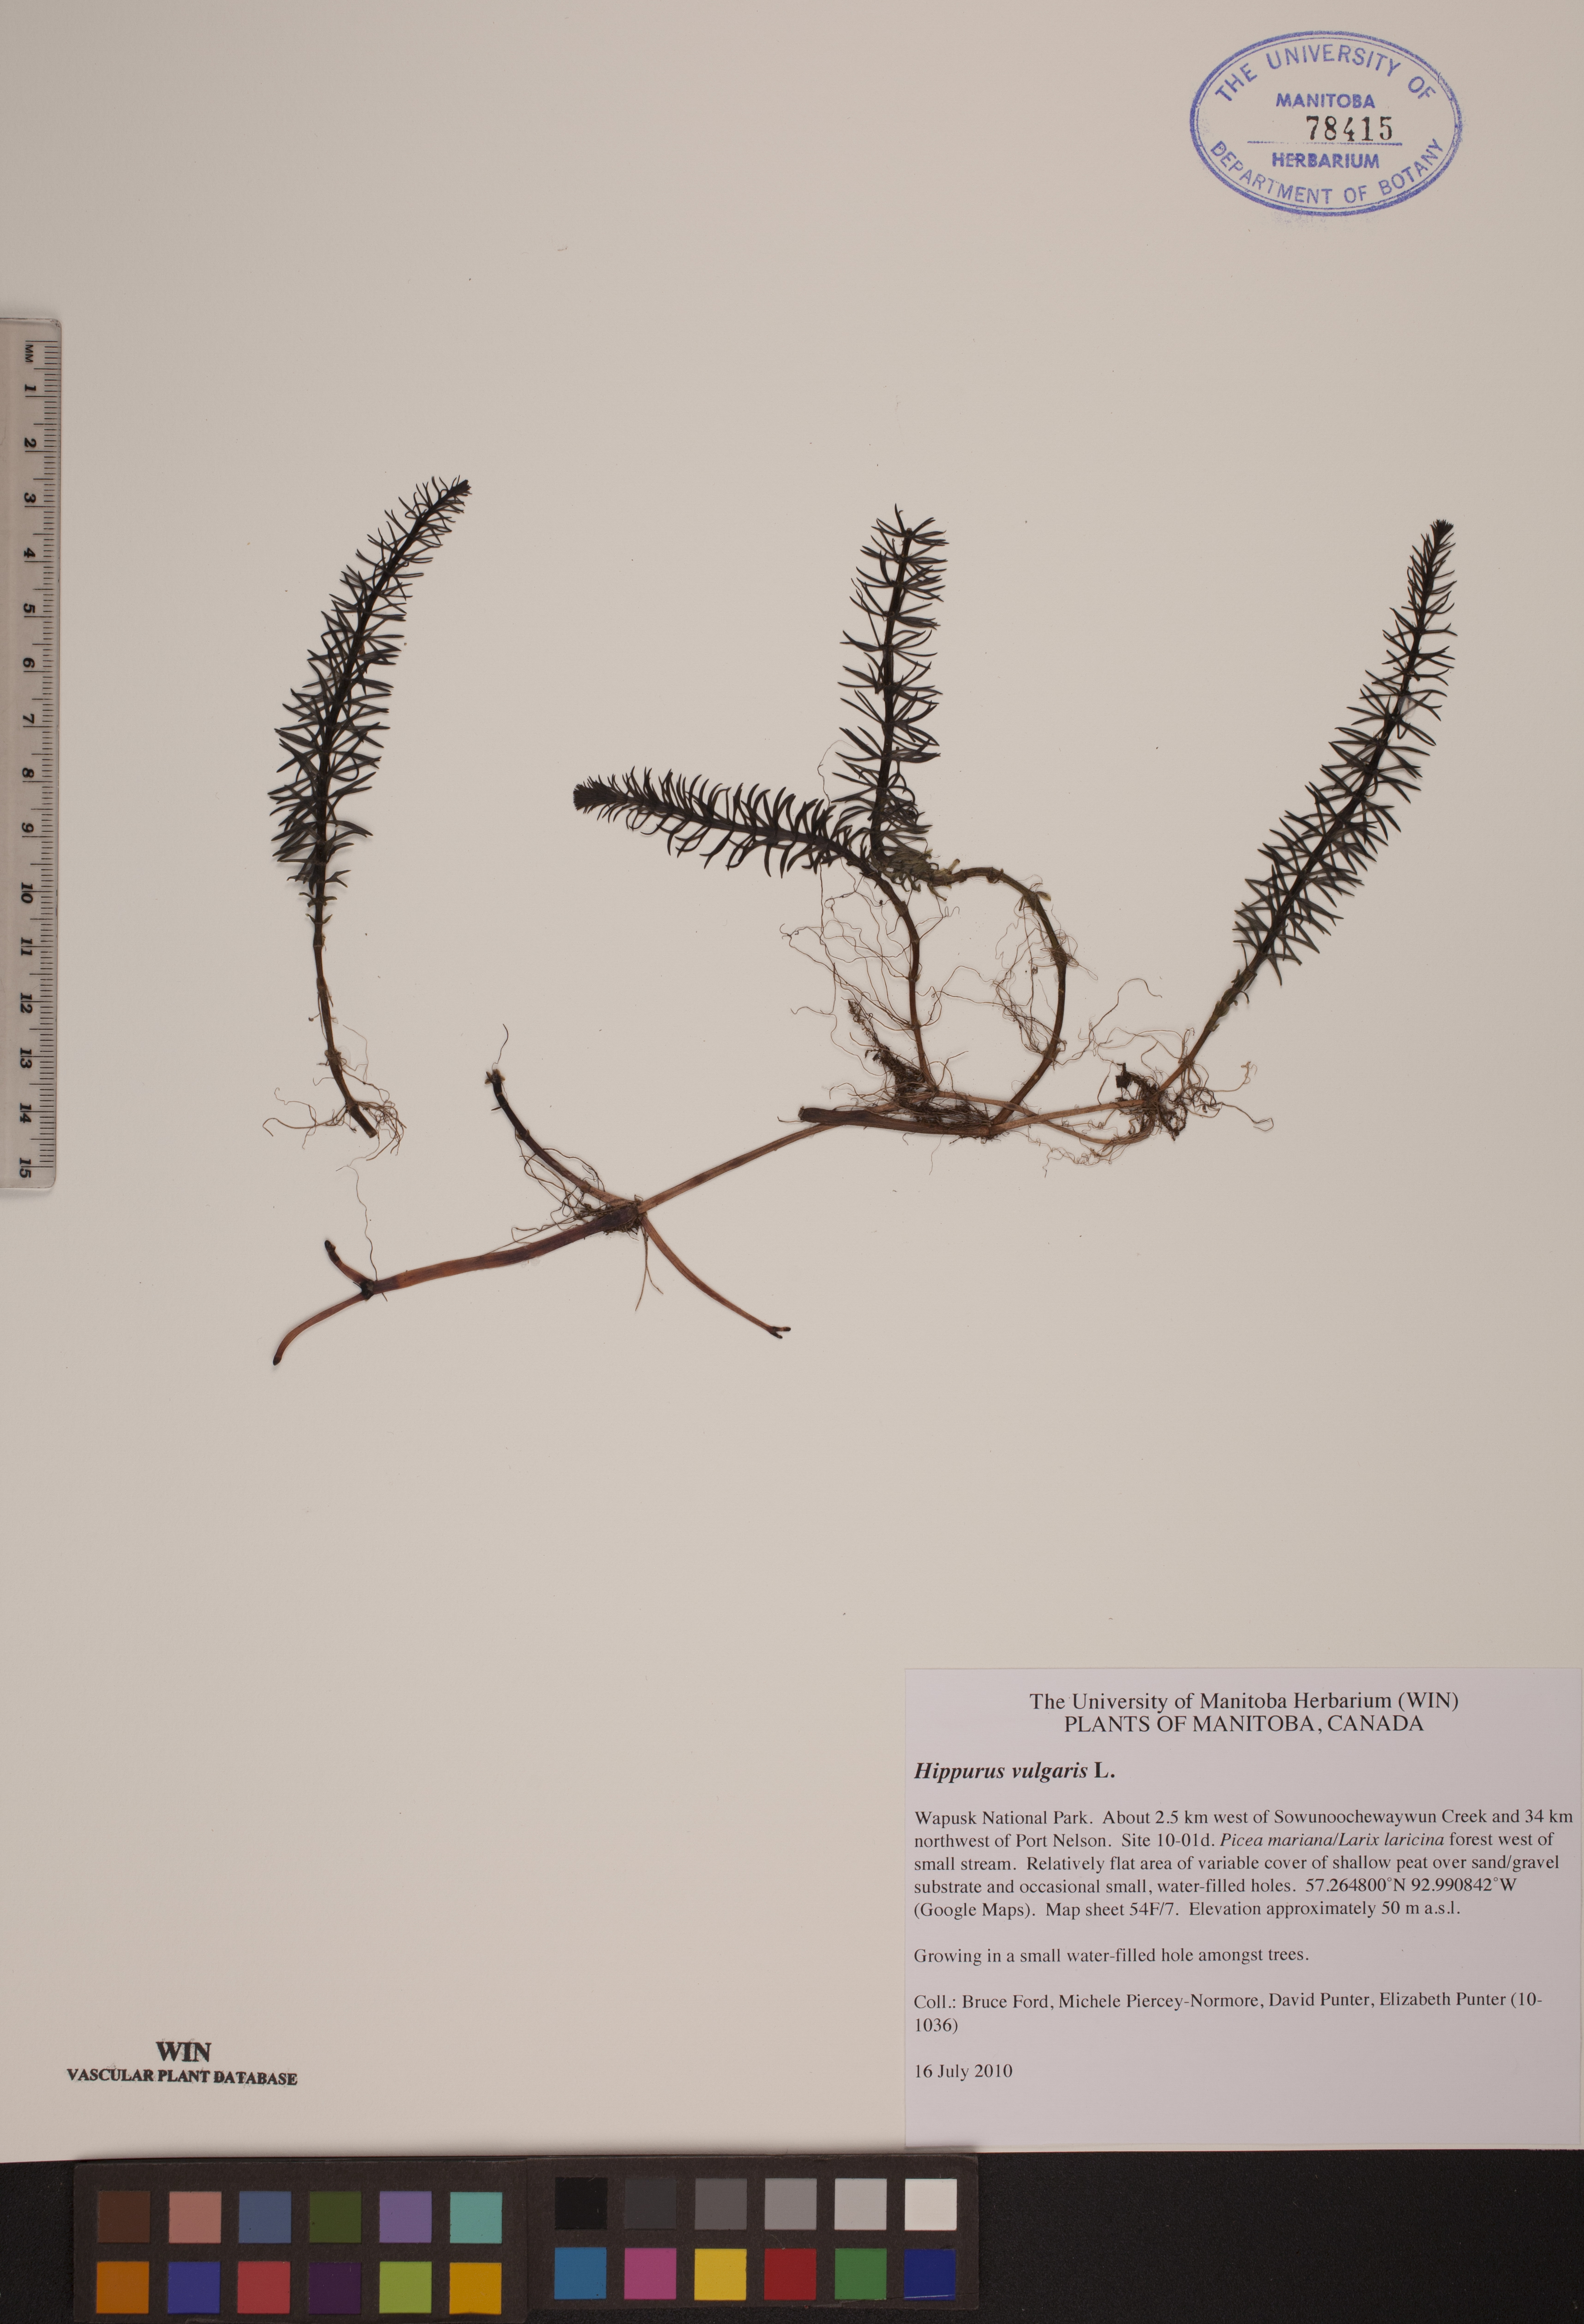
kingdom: Plantae
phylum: Tracheophyta
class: Magnoliopsida
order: Lamiales
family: Plantaginaceae
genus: Hippuris
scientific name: Hippuris vulgaris
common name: Mare's-tail
